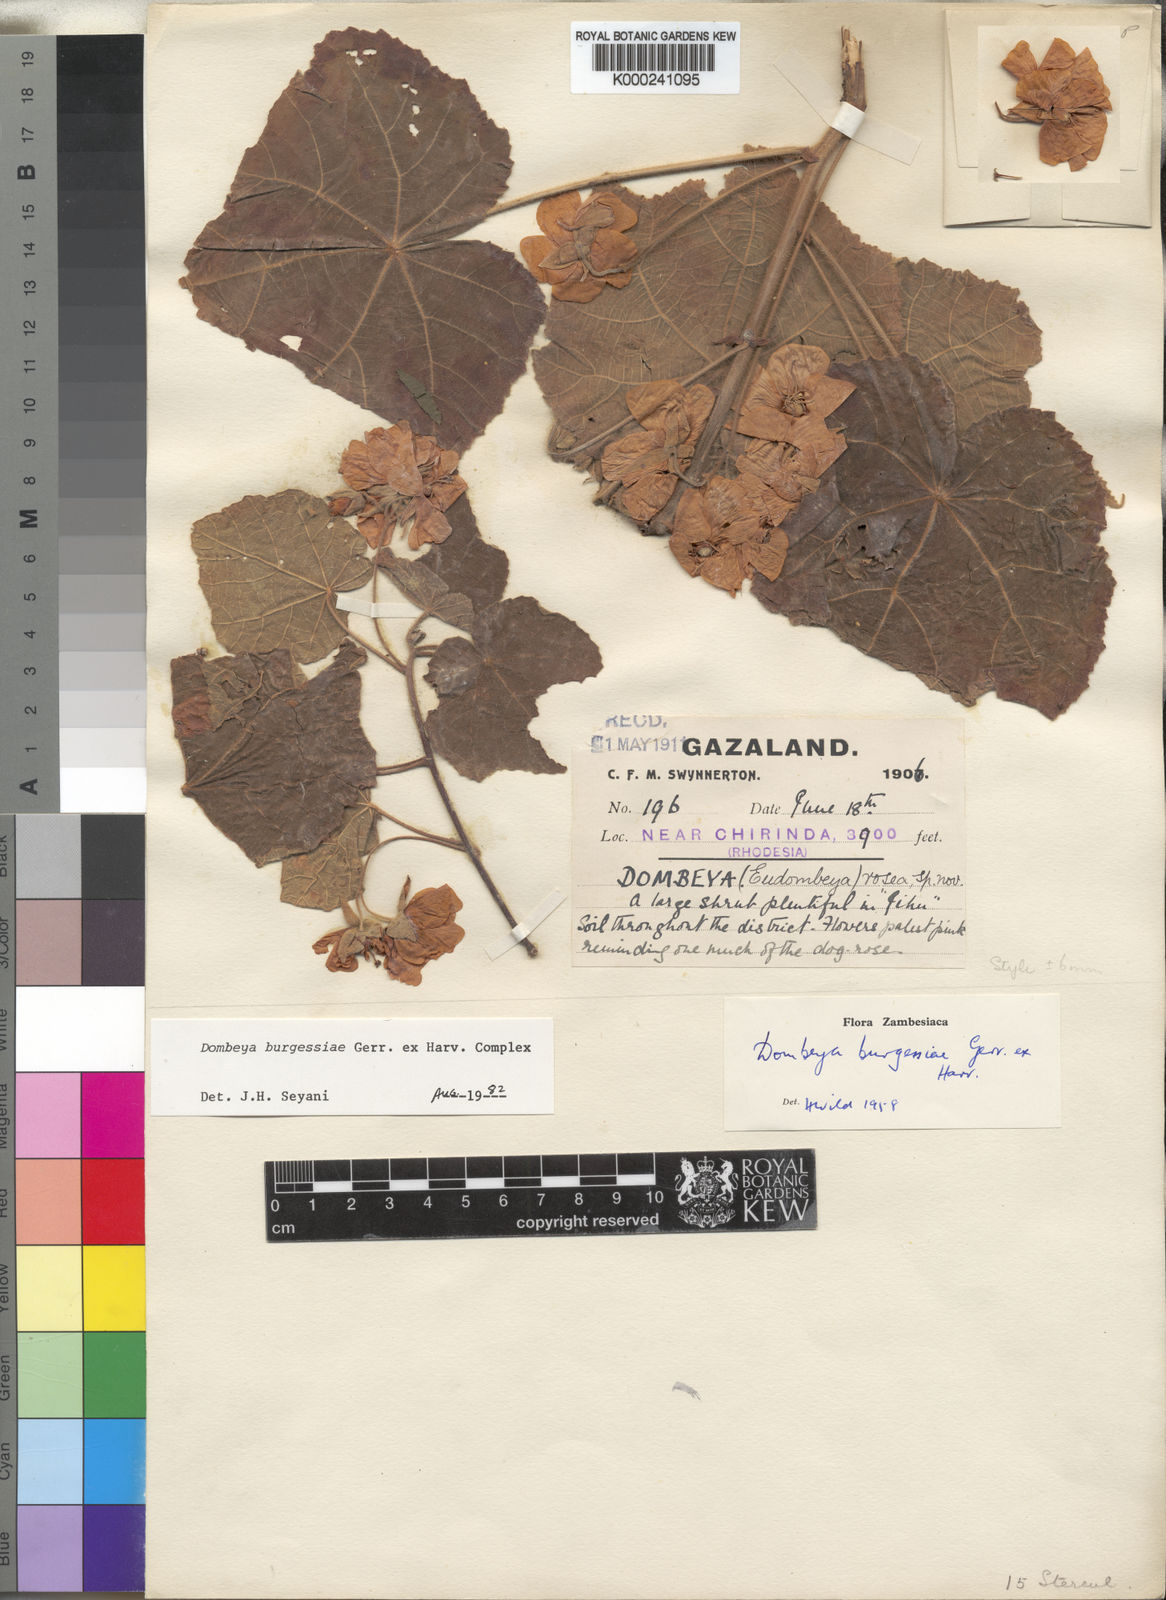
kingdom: Plantae
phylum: Tracheophyta
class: Magnoliopsida
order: Malvales
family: Malvaceae
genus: Dombeya
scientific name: Dombeya burgessiae
